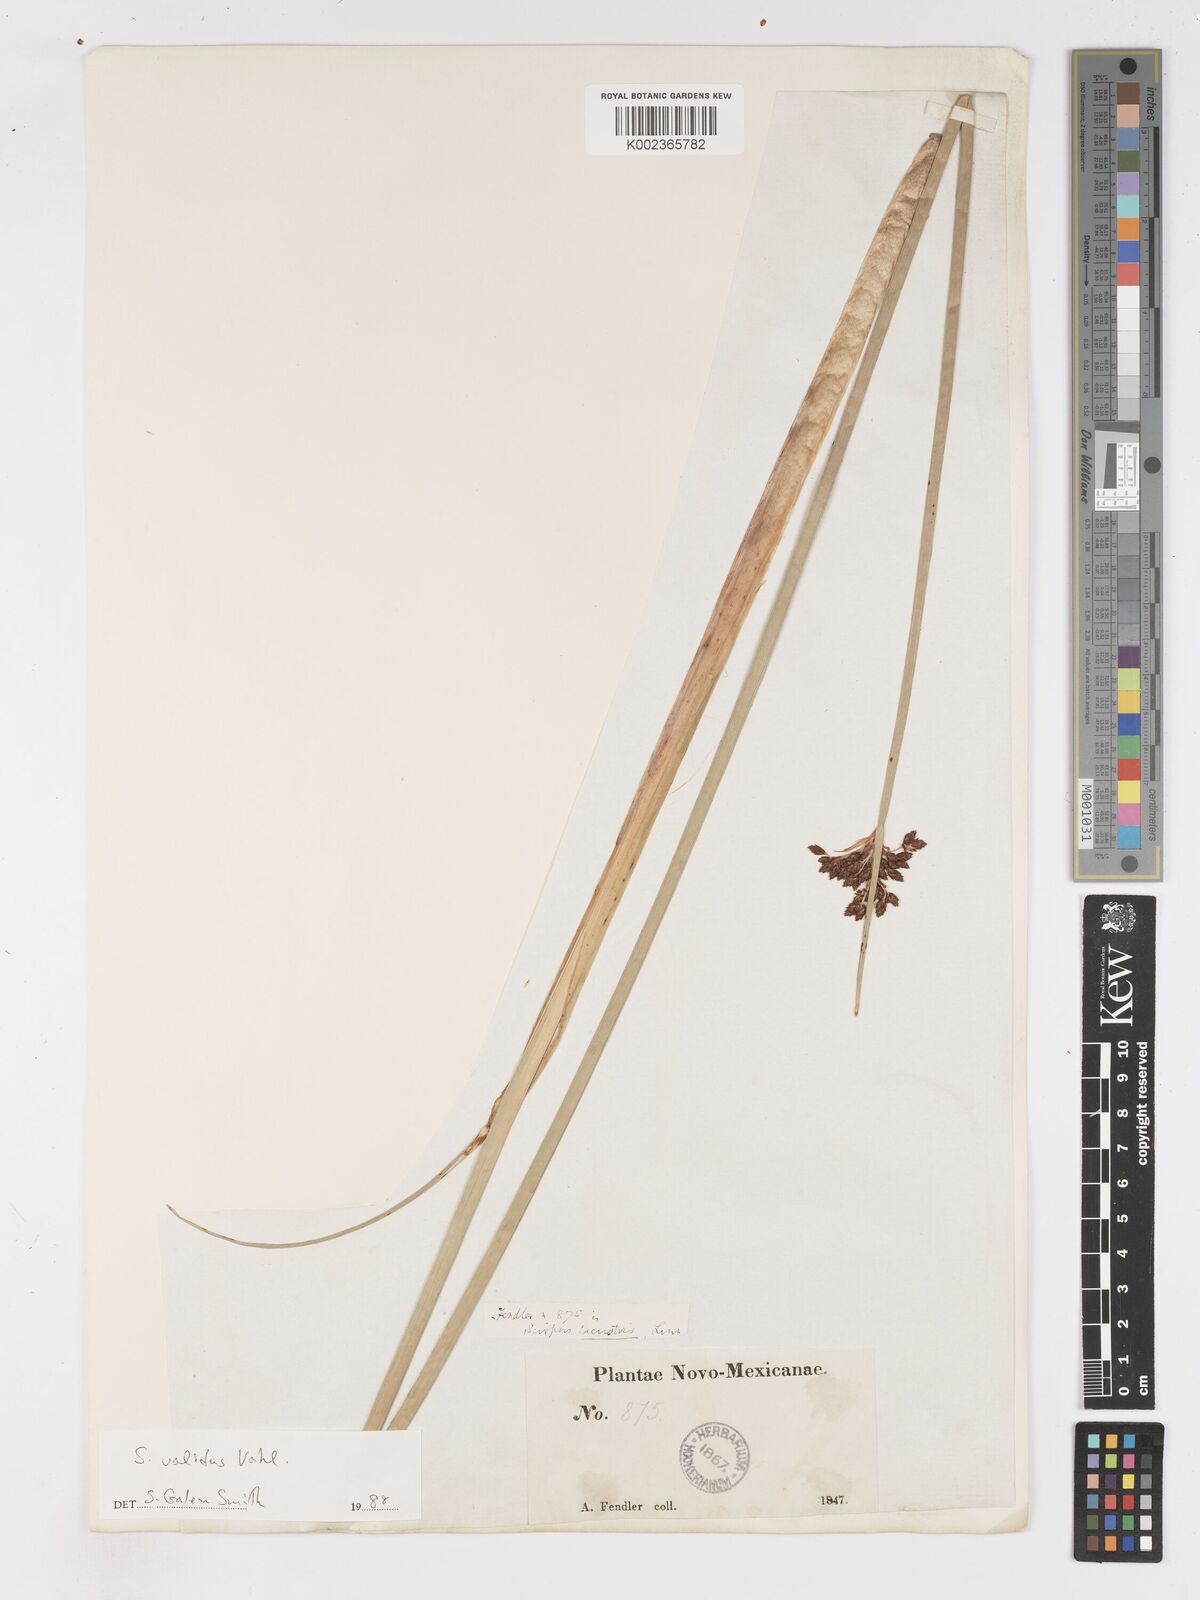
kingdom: Plantae
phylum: Tracheophyta
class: Liliopsida
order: Poales
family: Cyperaceae
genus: Schoenoplectus
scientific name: Schoenoplectus tabernaemontani
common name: Grey club-rush
